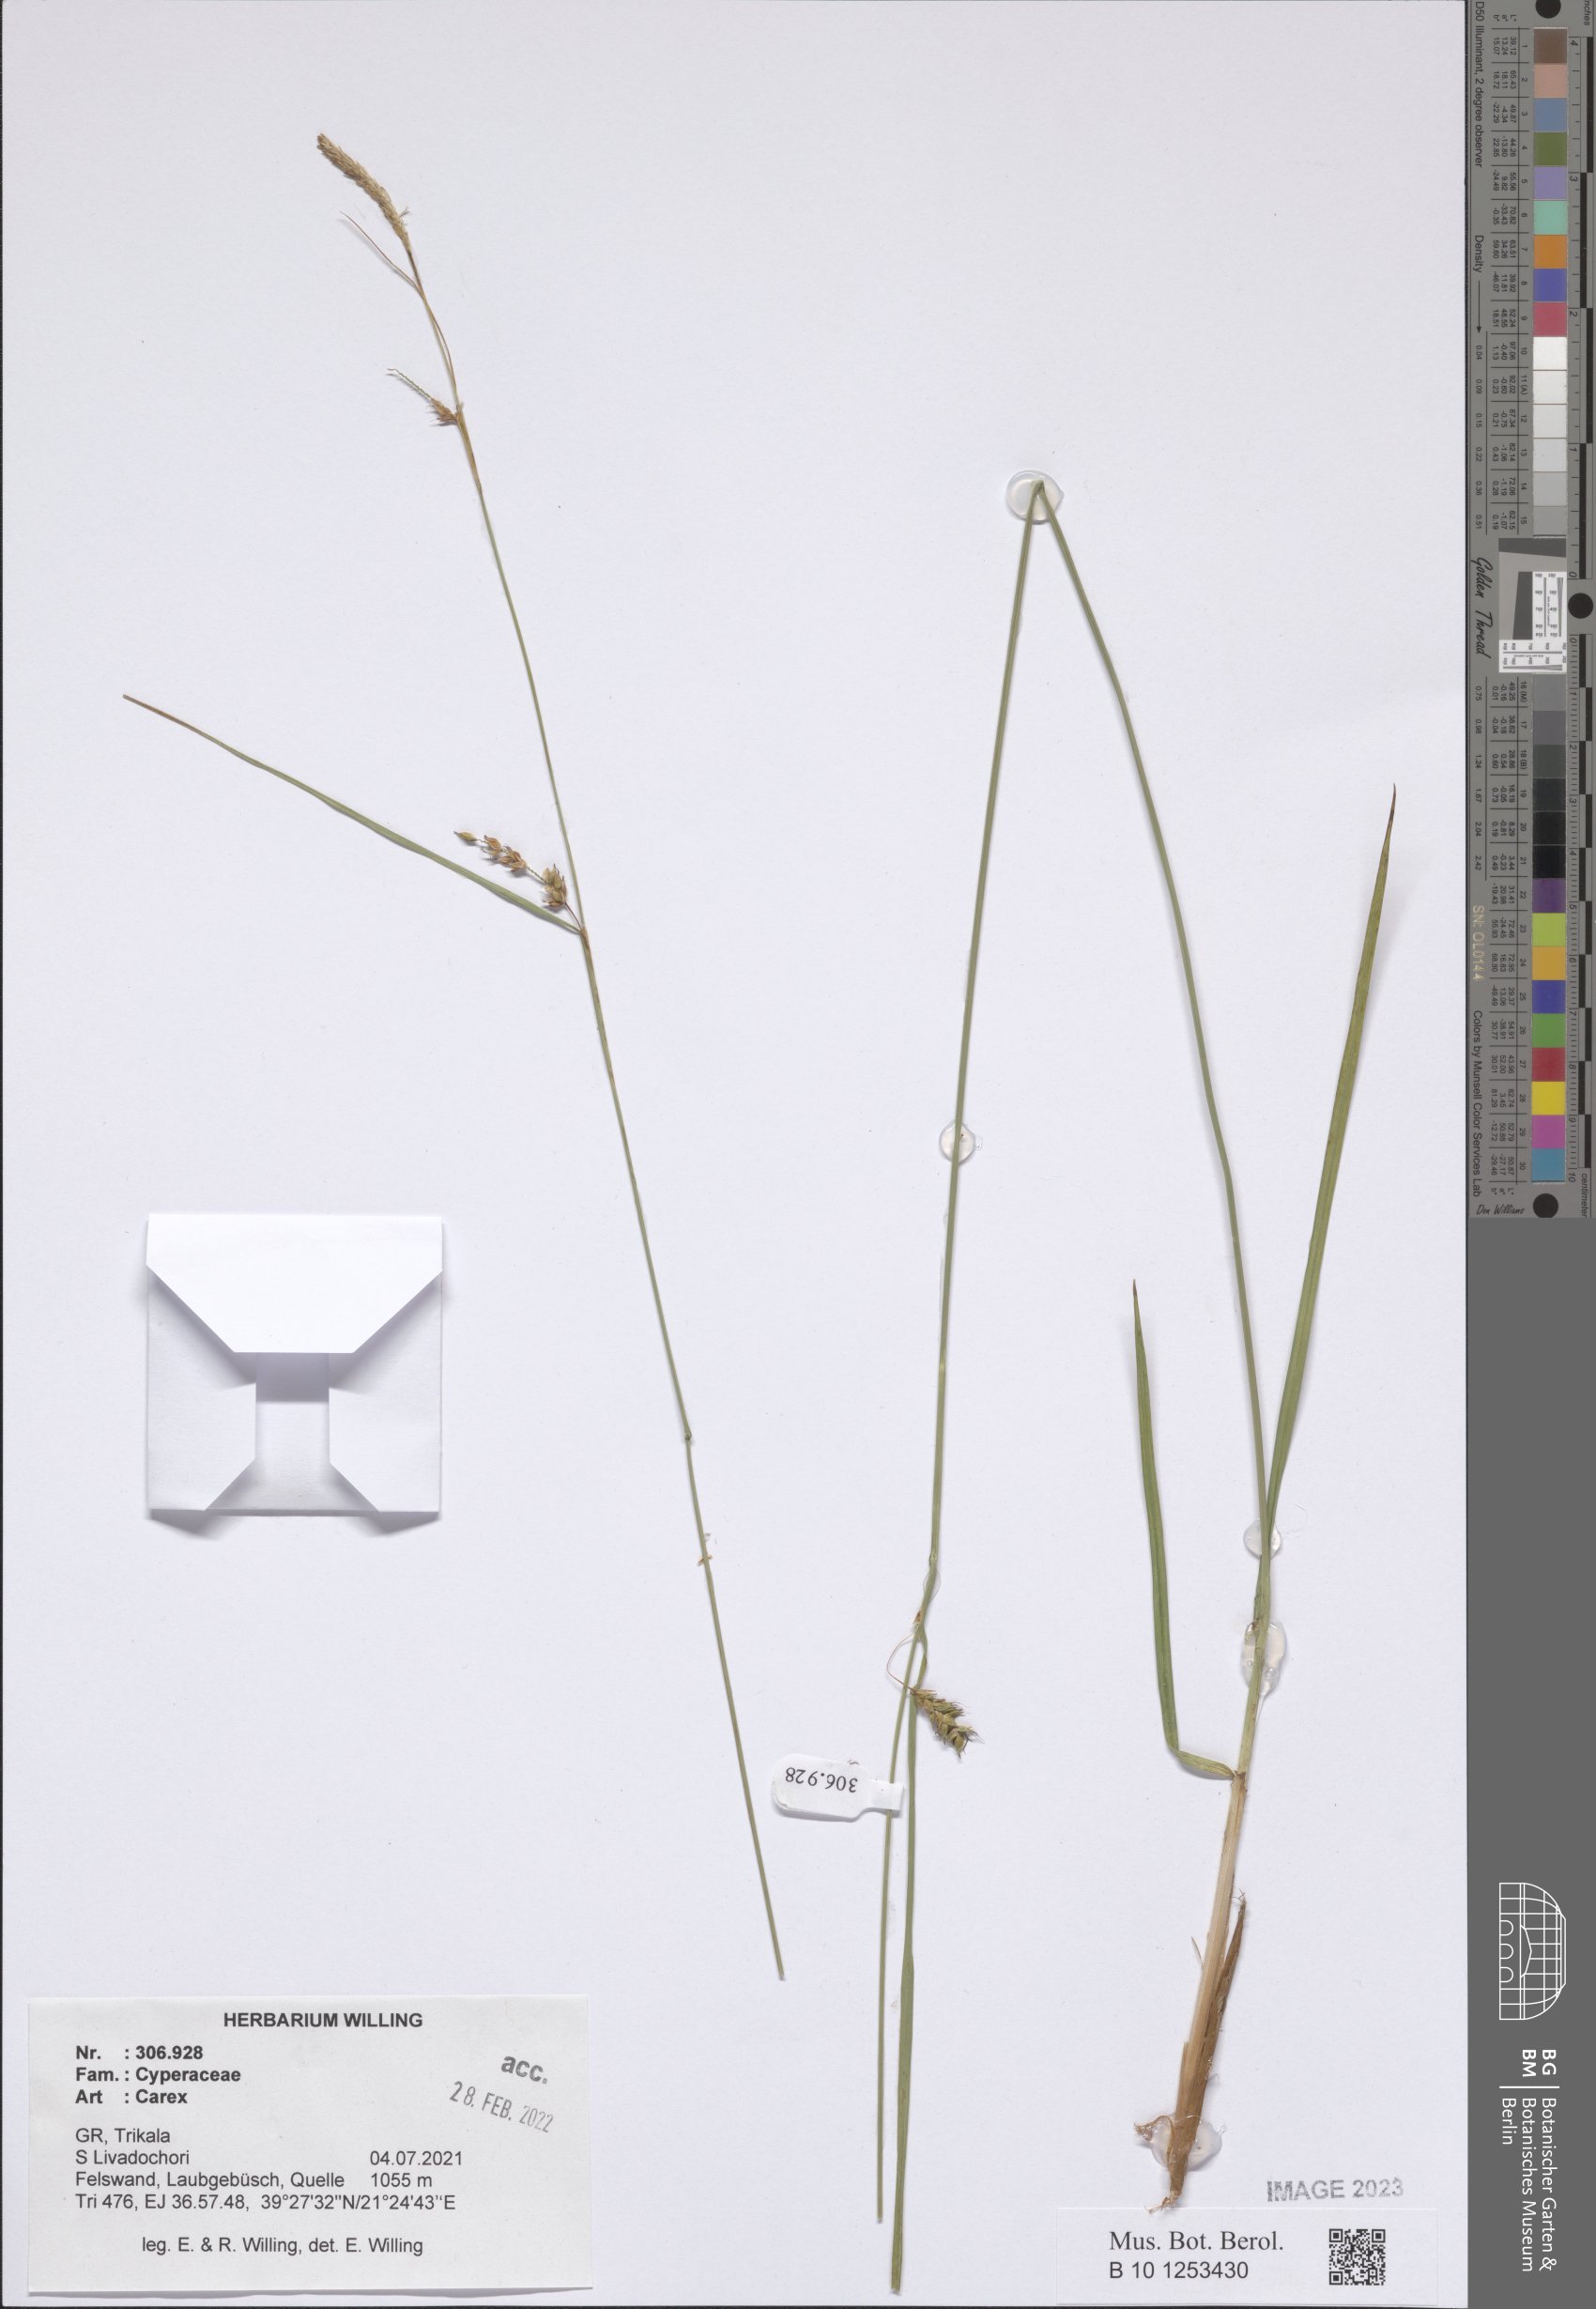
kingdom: Plantae
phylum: Tracheophyta
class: Liliopsida
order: Poales
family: Cyperaceae
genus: Carex
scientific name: Carex
